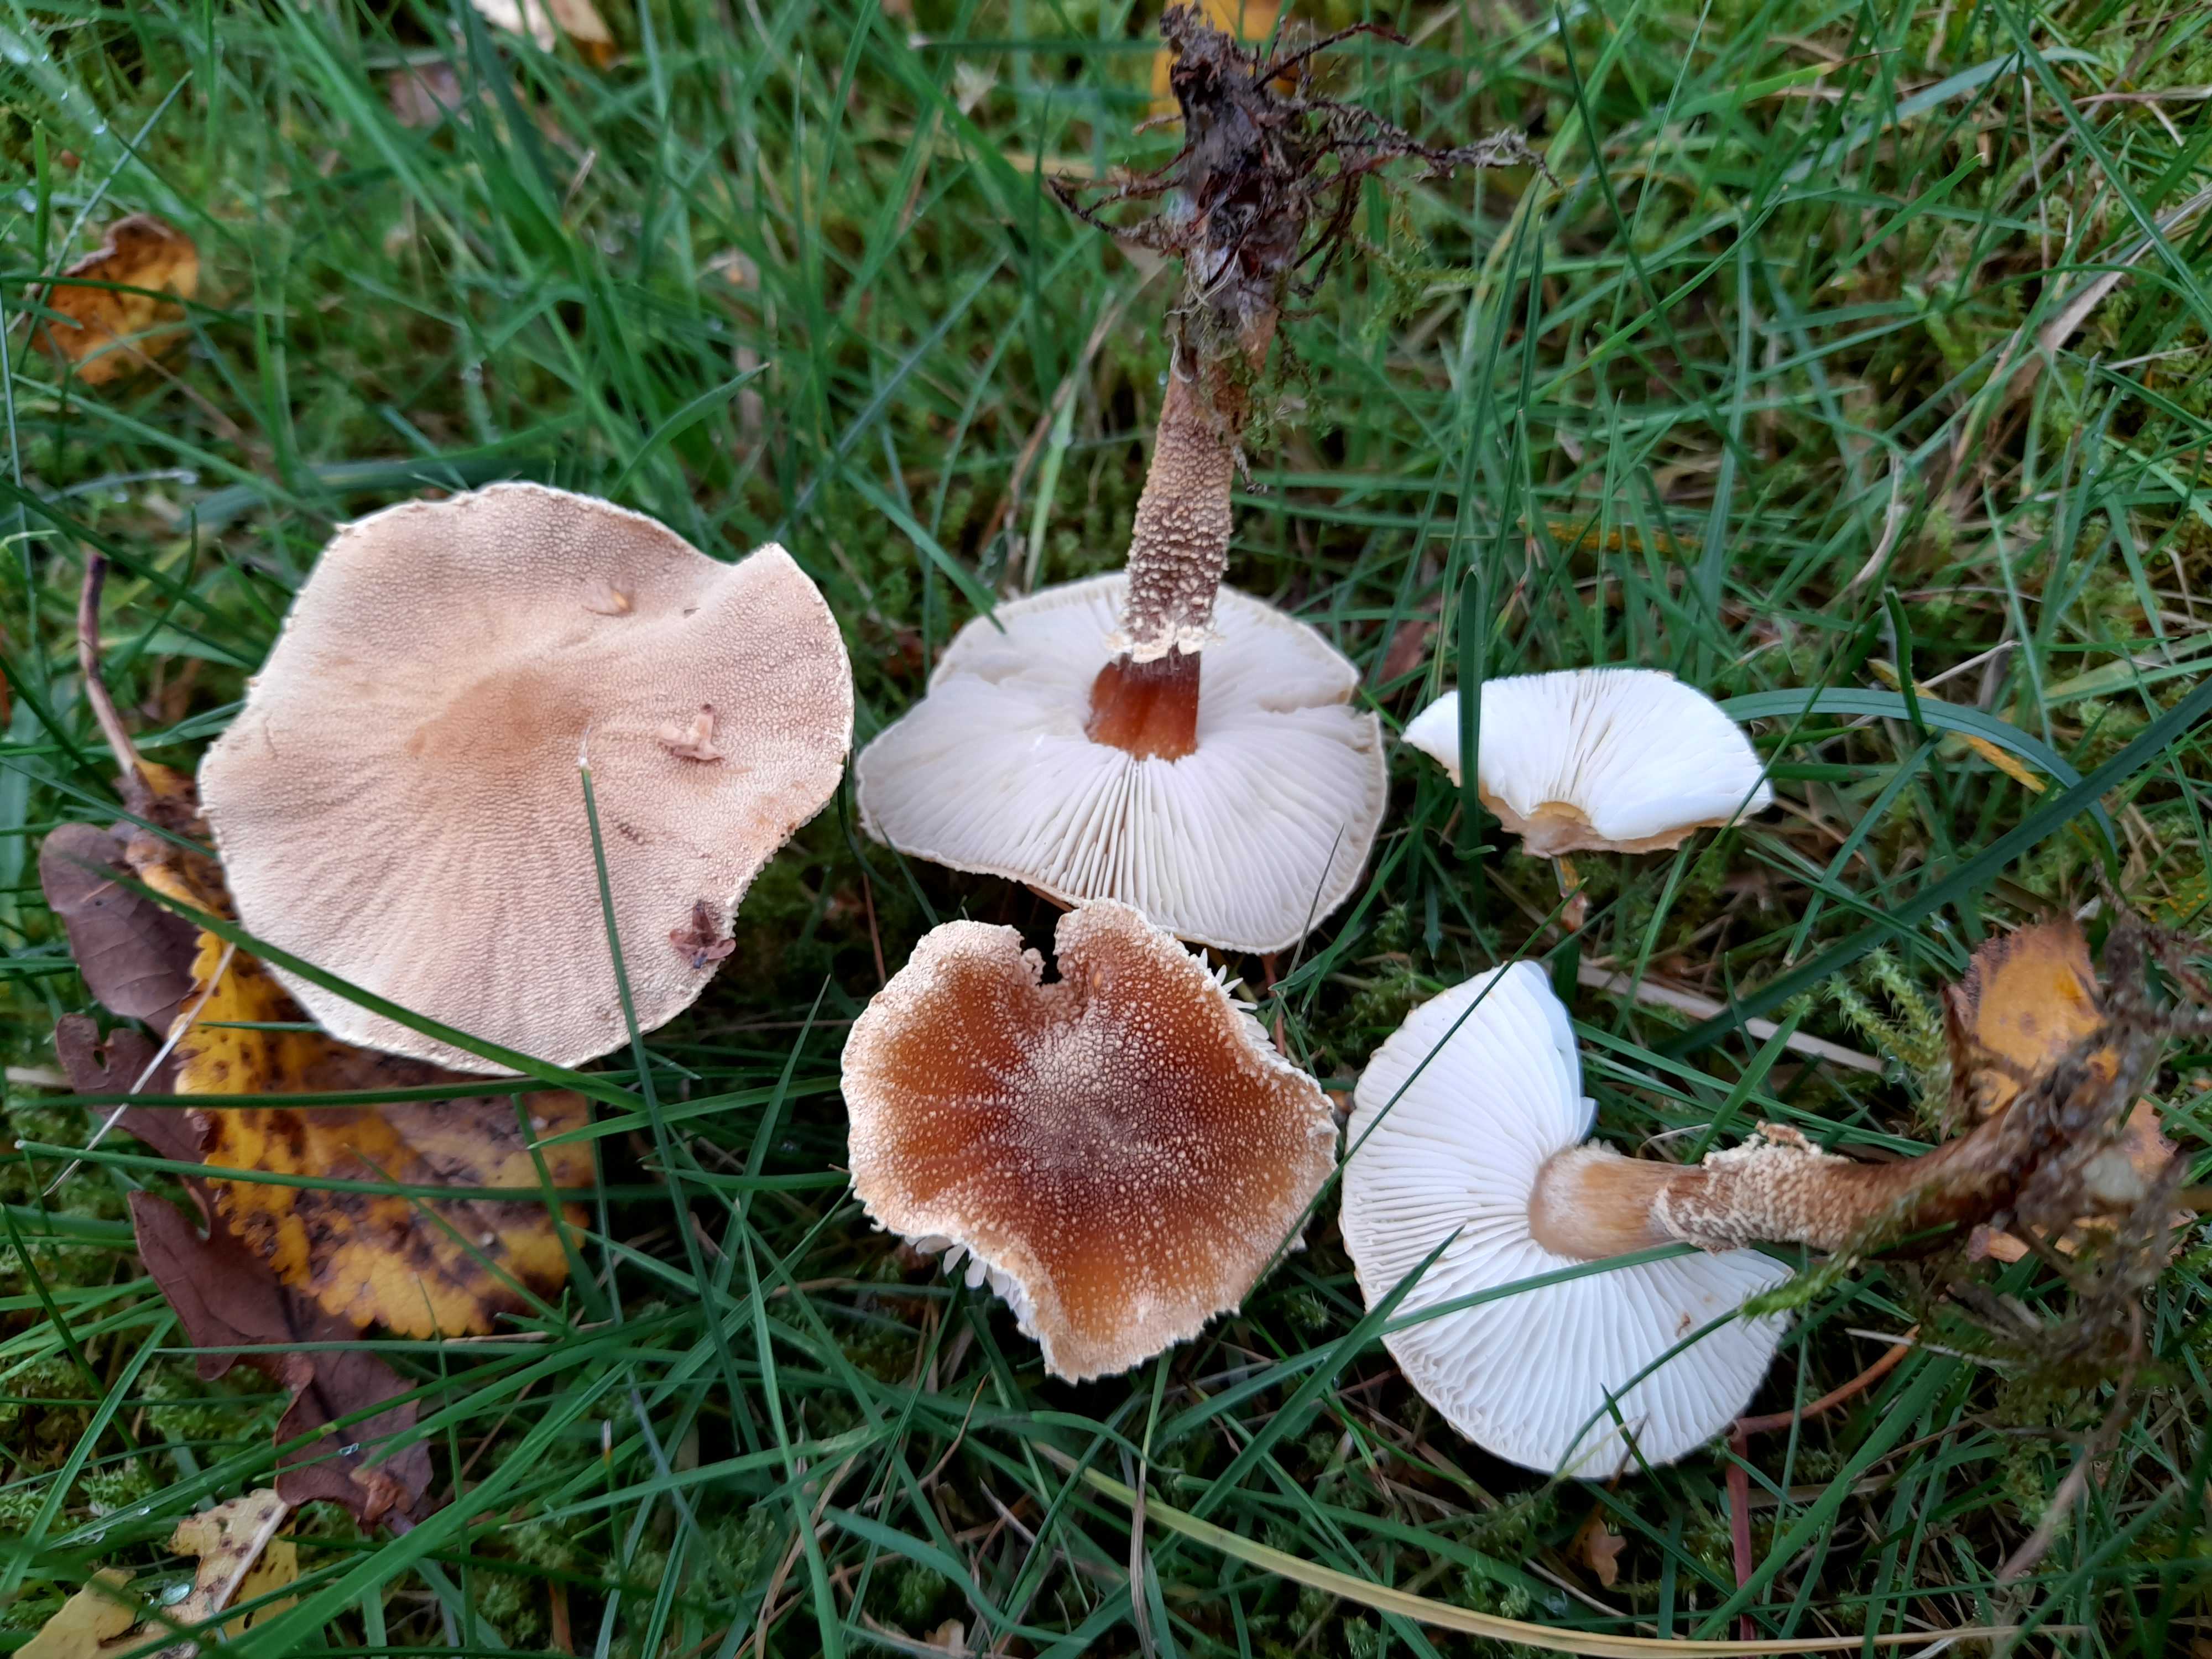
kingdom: Fungi
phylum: Basidiomycota
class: Agaricomycetes
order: Agaricales
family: Tricholomataceae
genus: Cystoderma
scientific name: Cystoderma amianthinum
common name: okkergul grynhat
